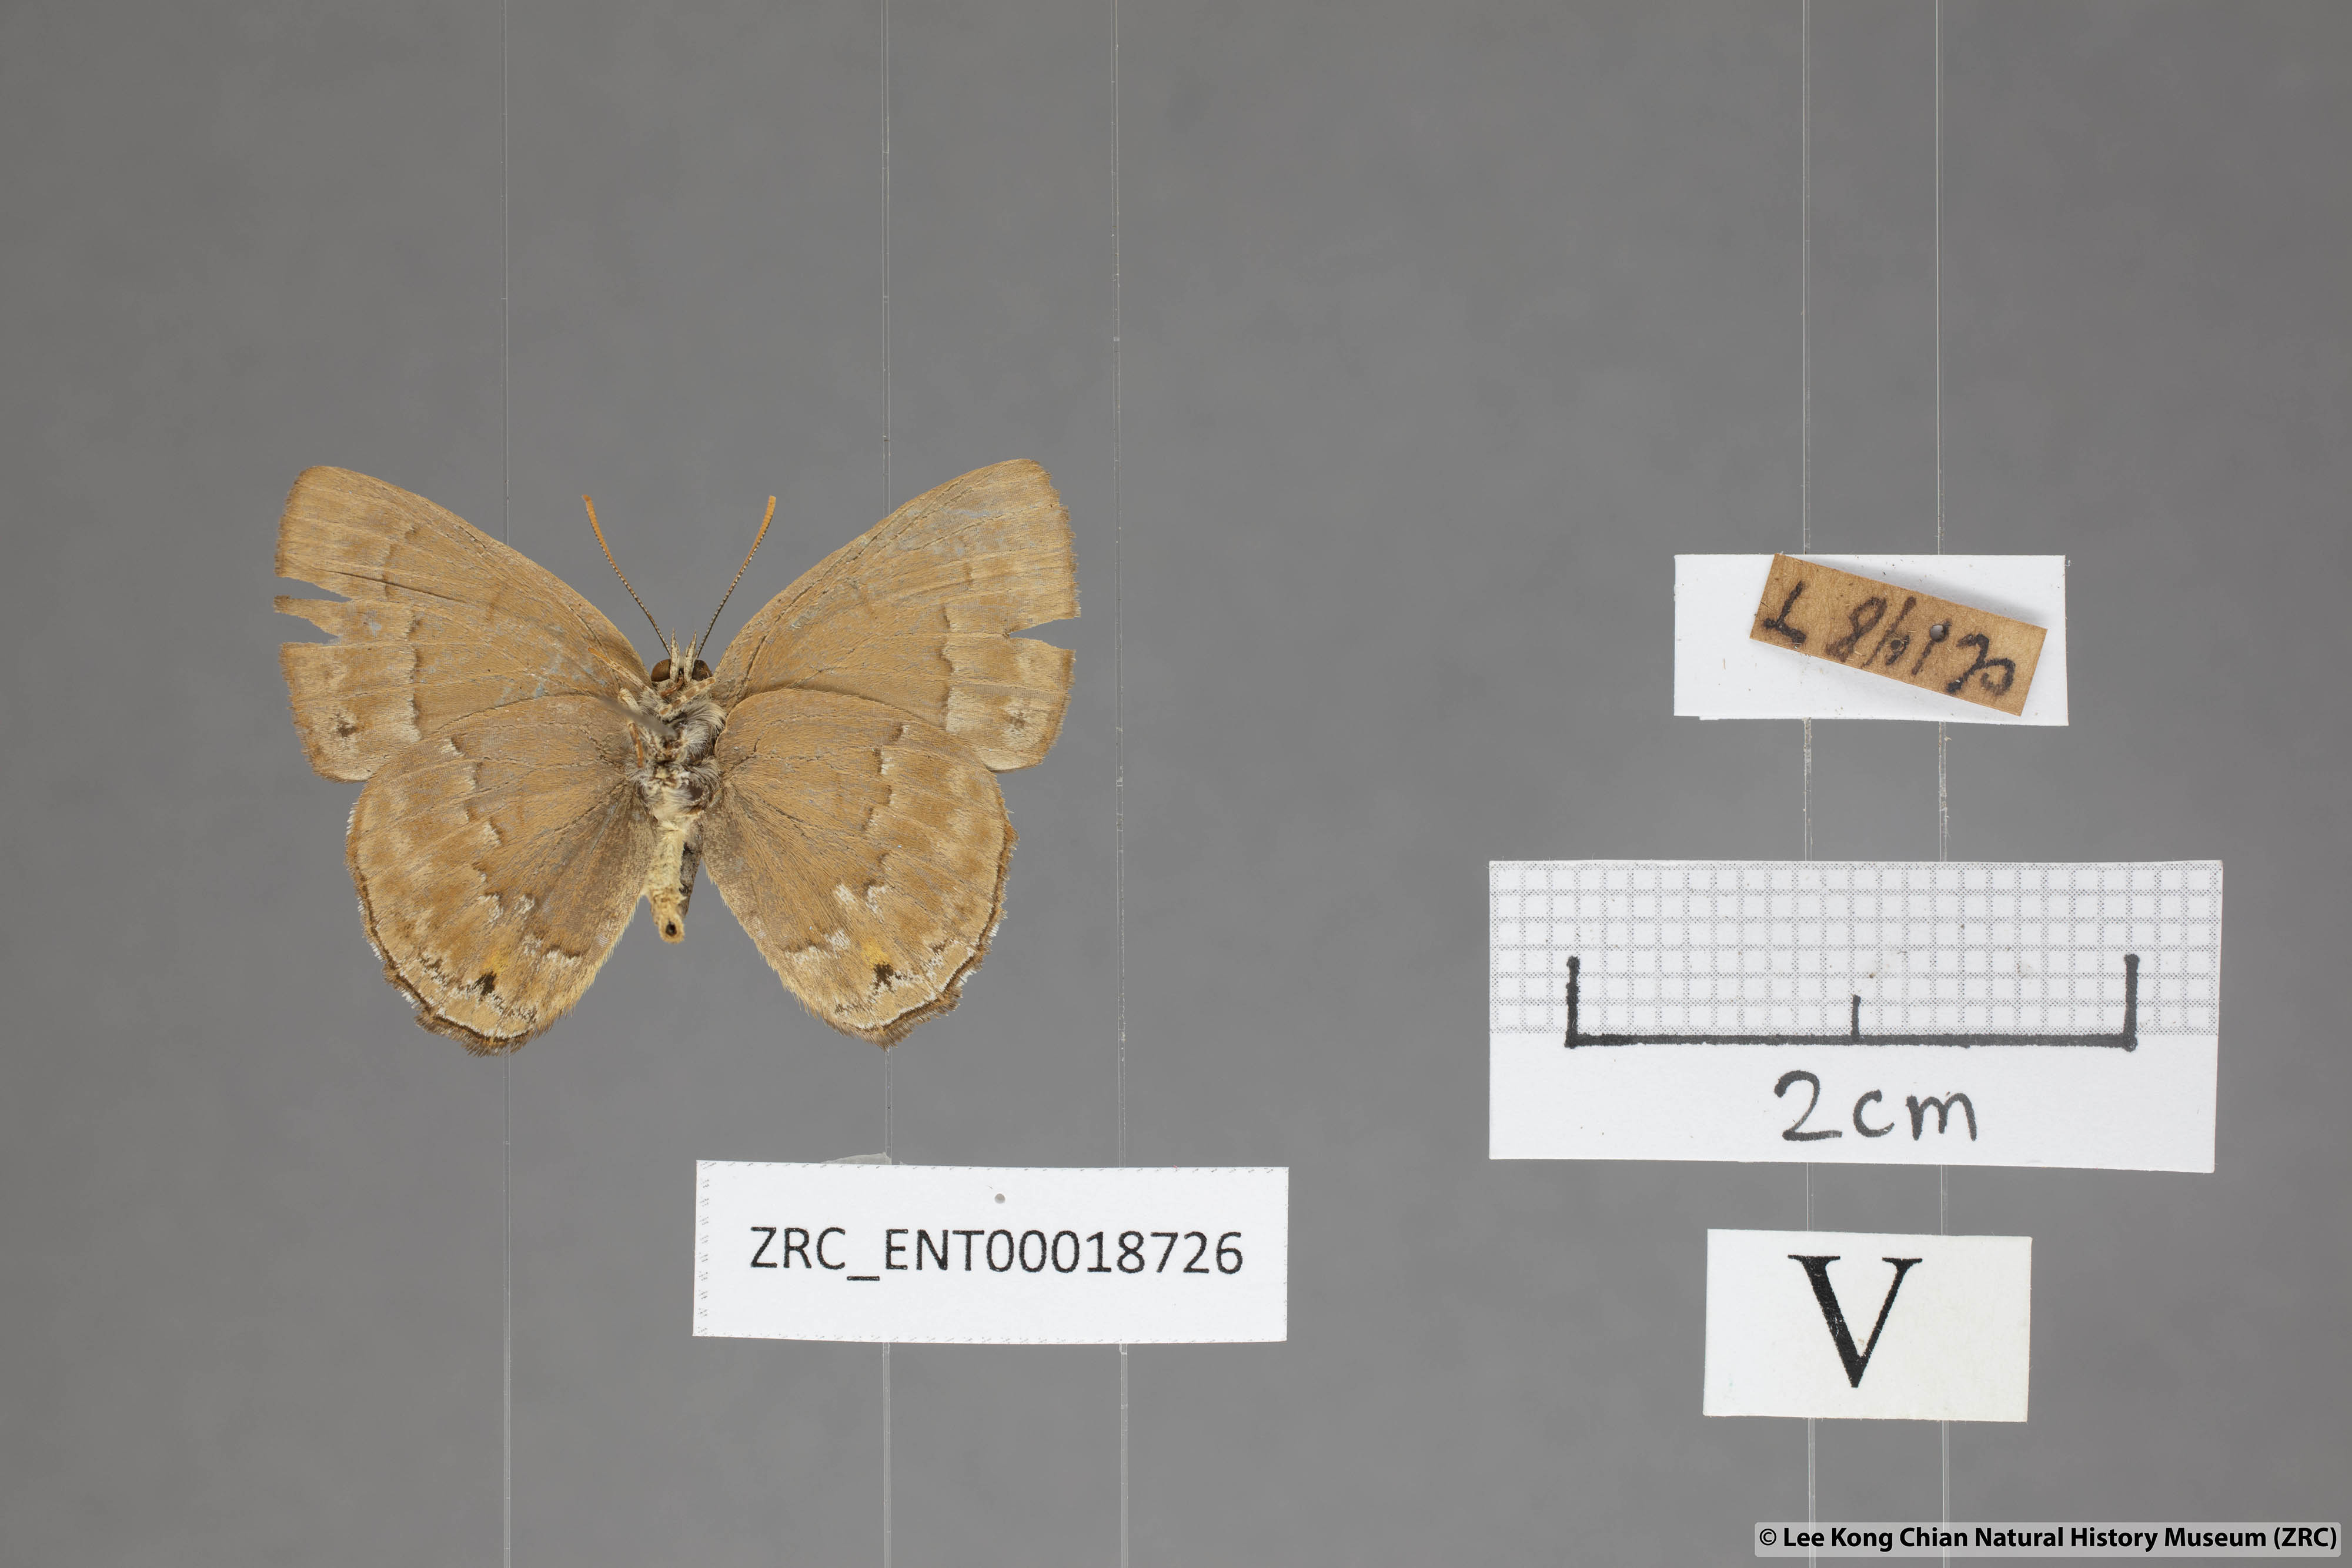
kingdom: Animalia
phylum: Arthropoda
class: Insecta
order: Lepidoptera
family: Lycaenidae
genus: Deramas
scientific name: Deramas livena
